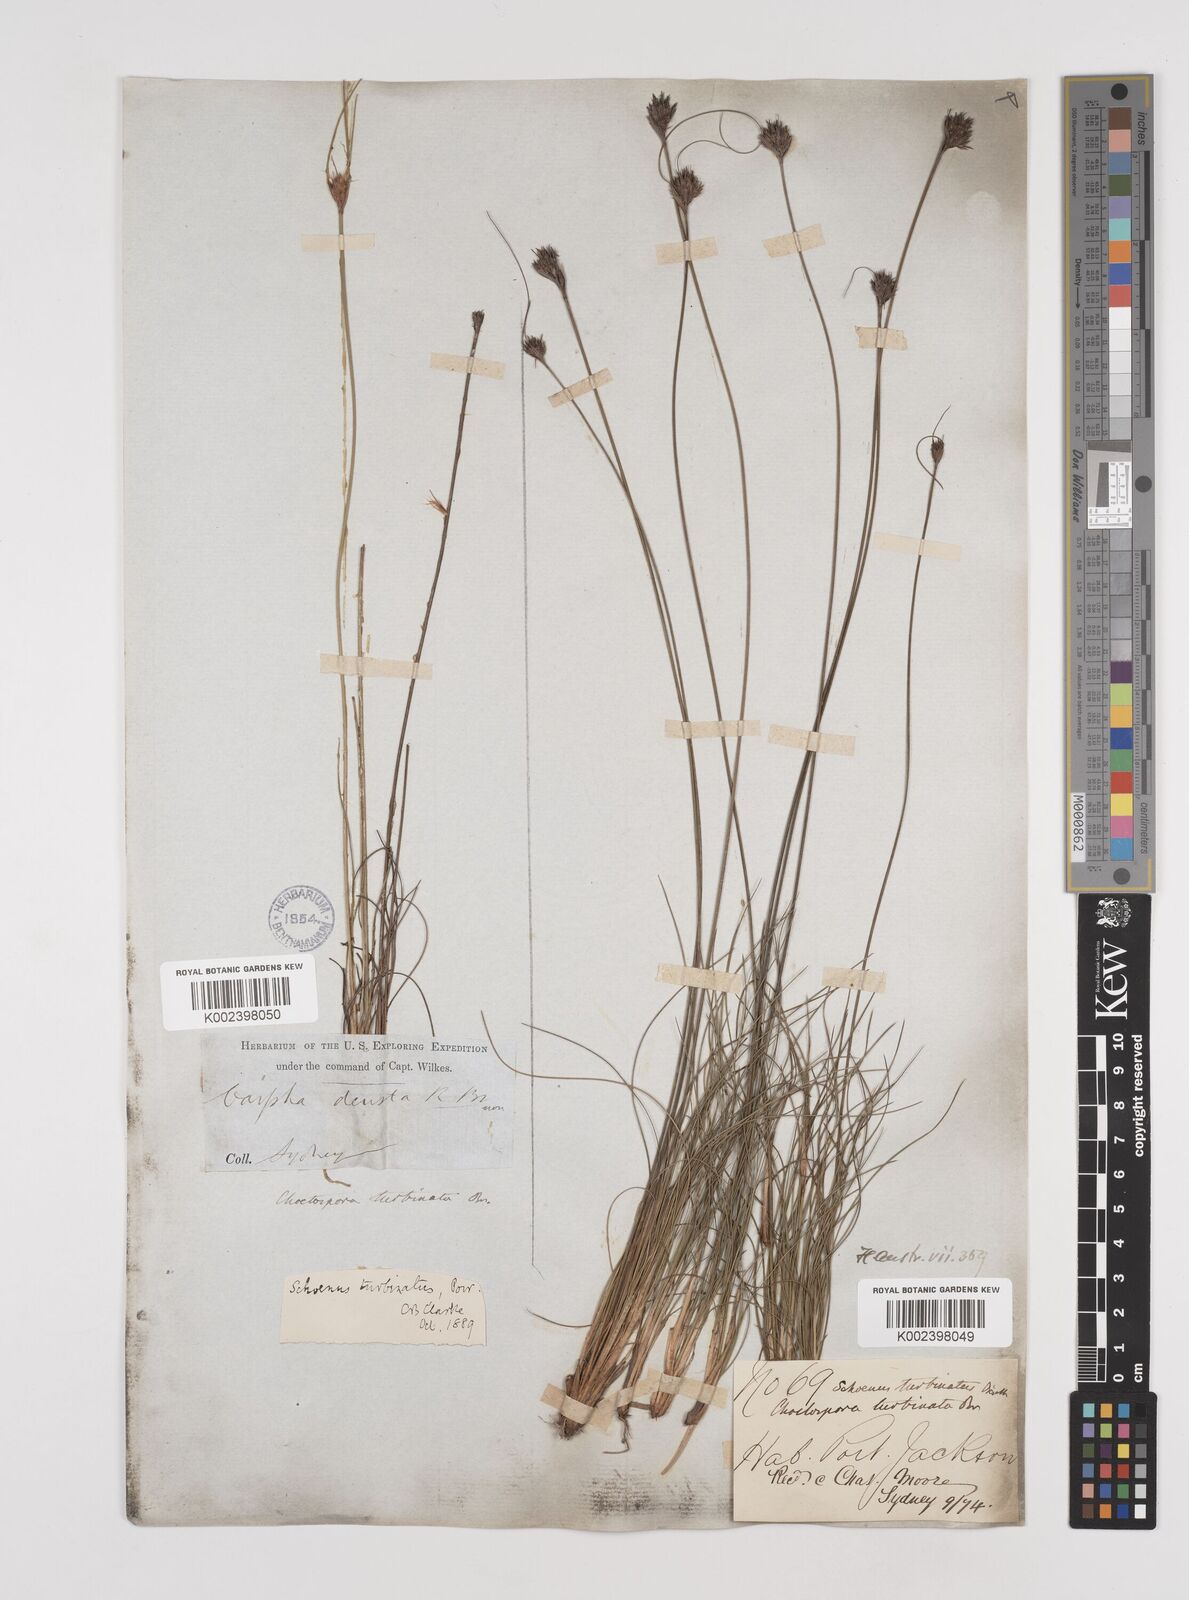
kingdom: Plantae
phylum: Tracheophyta
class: Liliopsida
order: Poales
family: Cyperaceae
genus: Schoenus
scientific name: Schoenus turbinatus
